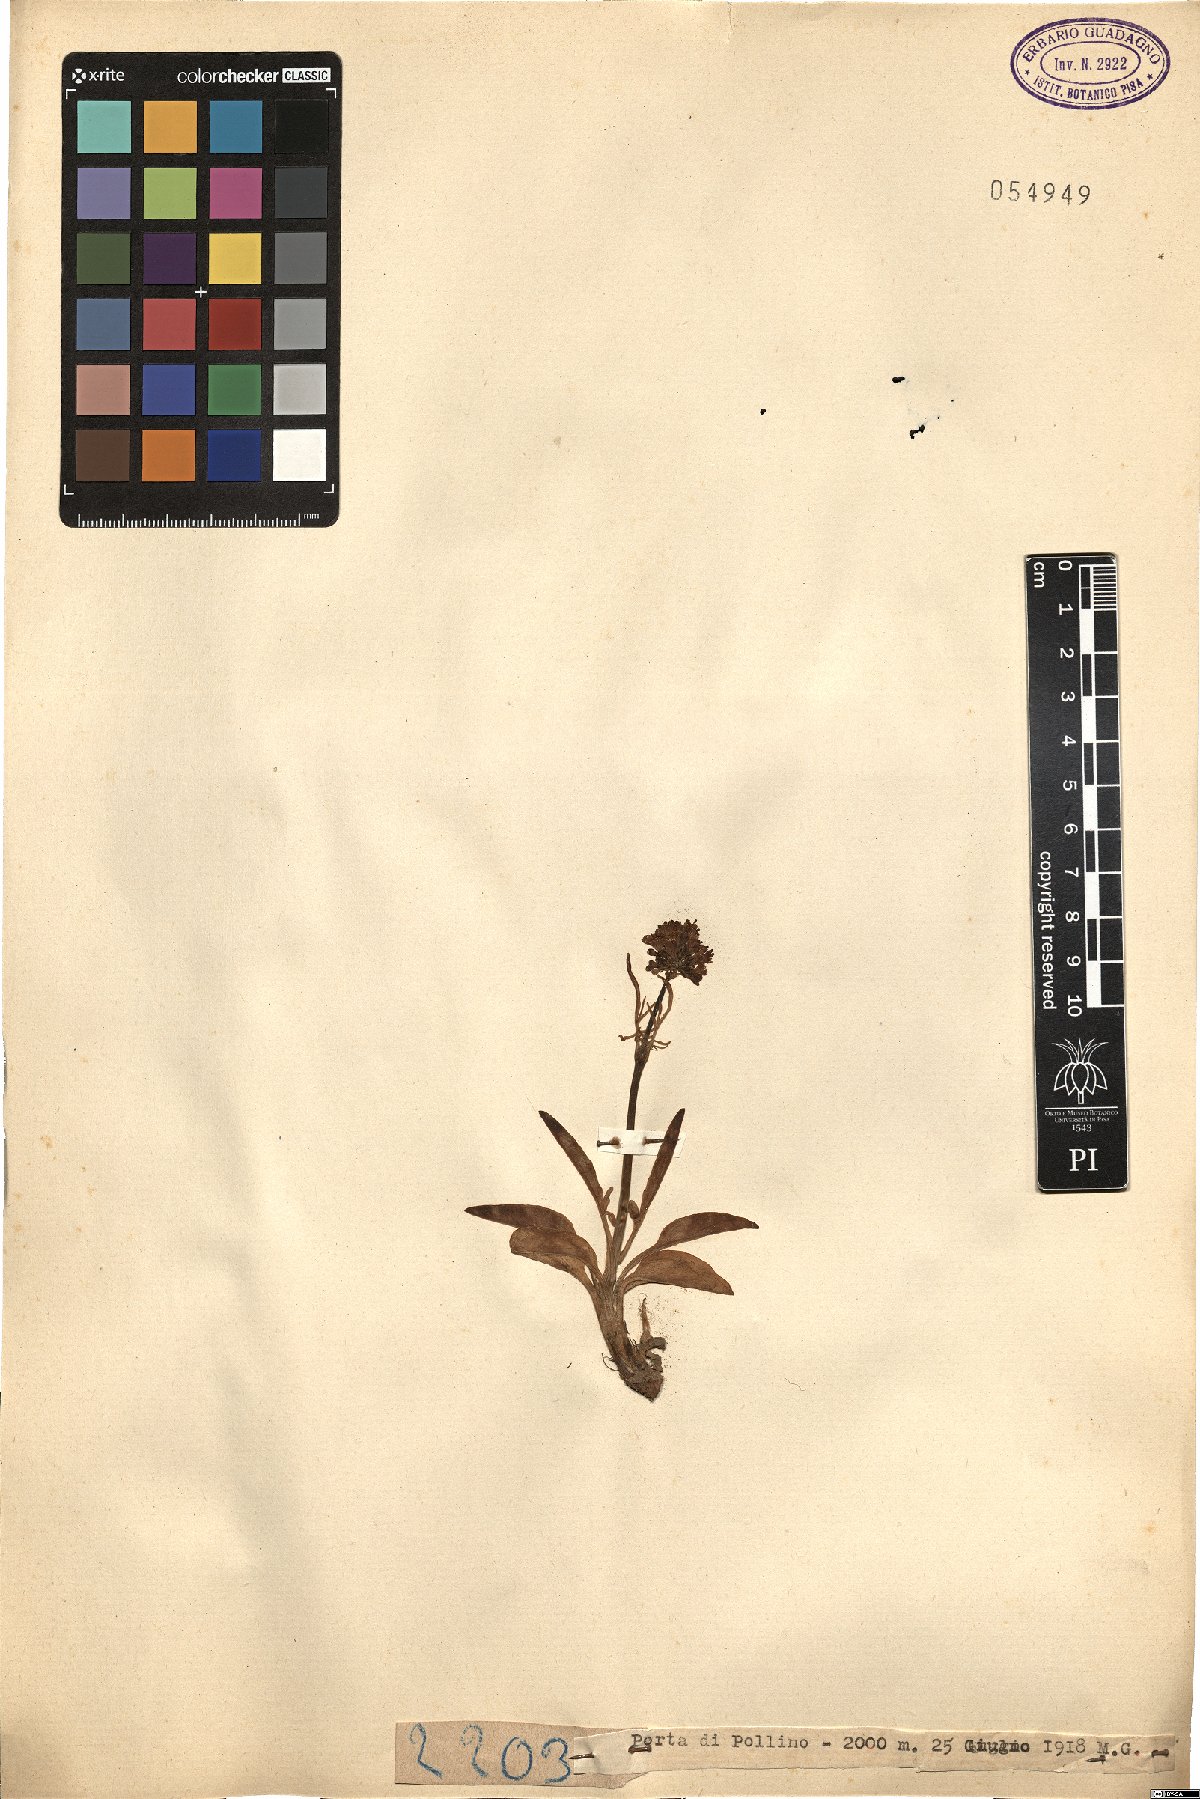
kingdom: Plantae
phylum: Tracheophyta
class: Magnoliopsida
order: Dipsacales
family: Caprifoliaceae
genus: Valeriana
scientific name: Valeriana
